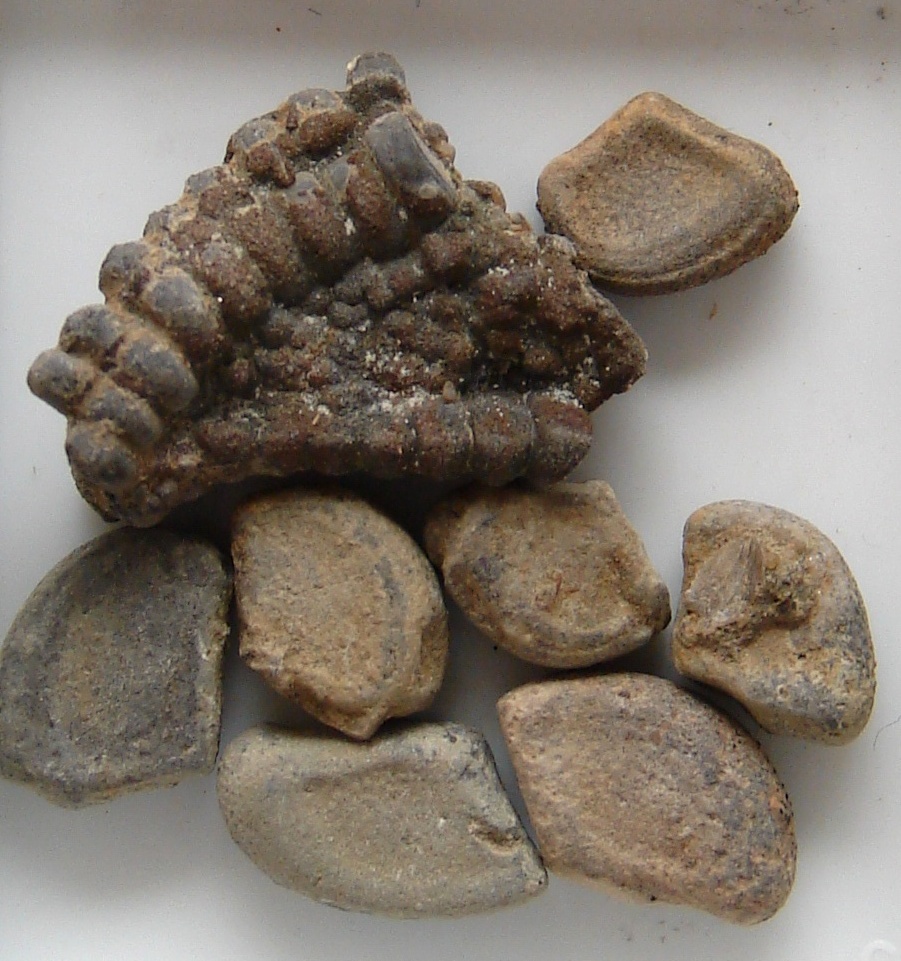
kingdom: Animalia
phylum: Echinodermata
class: Ophiuroidea
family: Ophiuridae
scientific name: Ophiuridae
